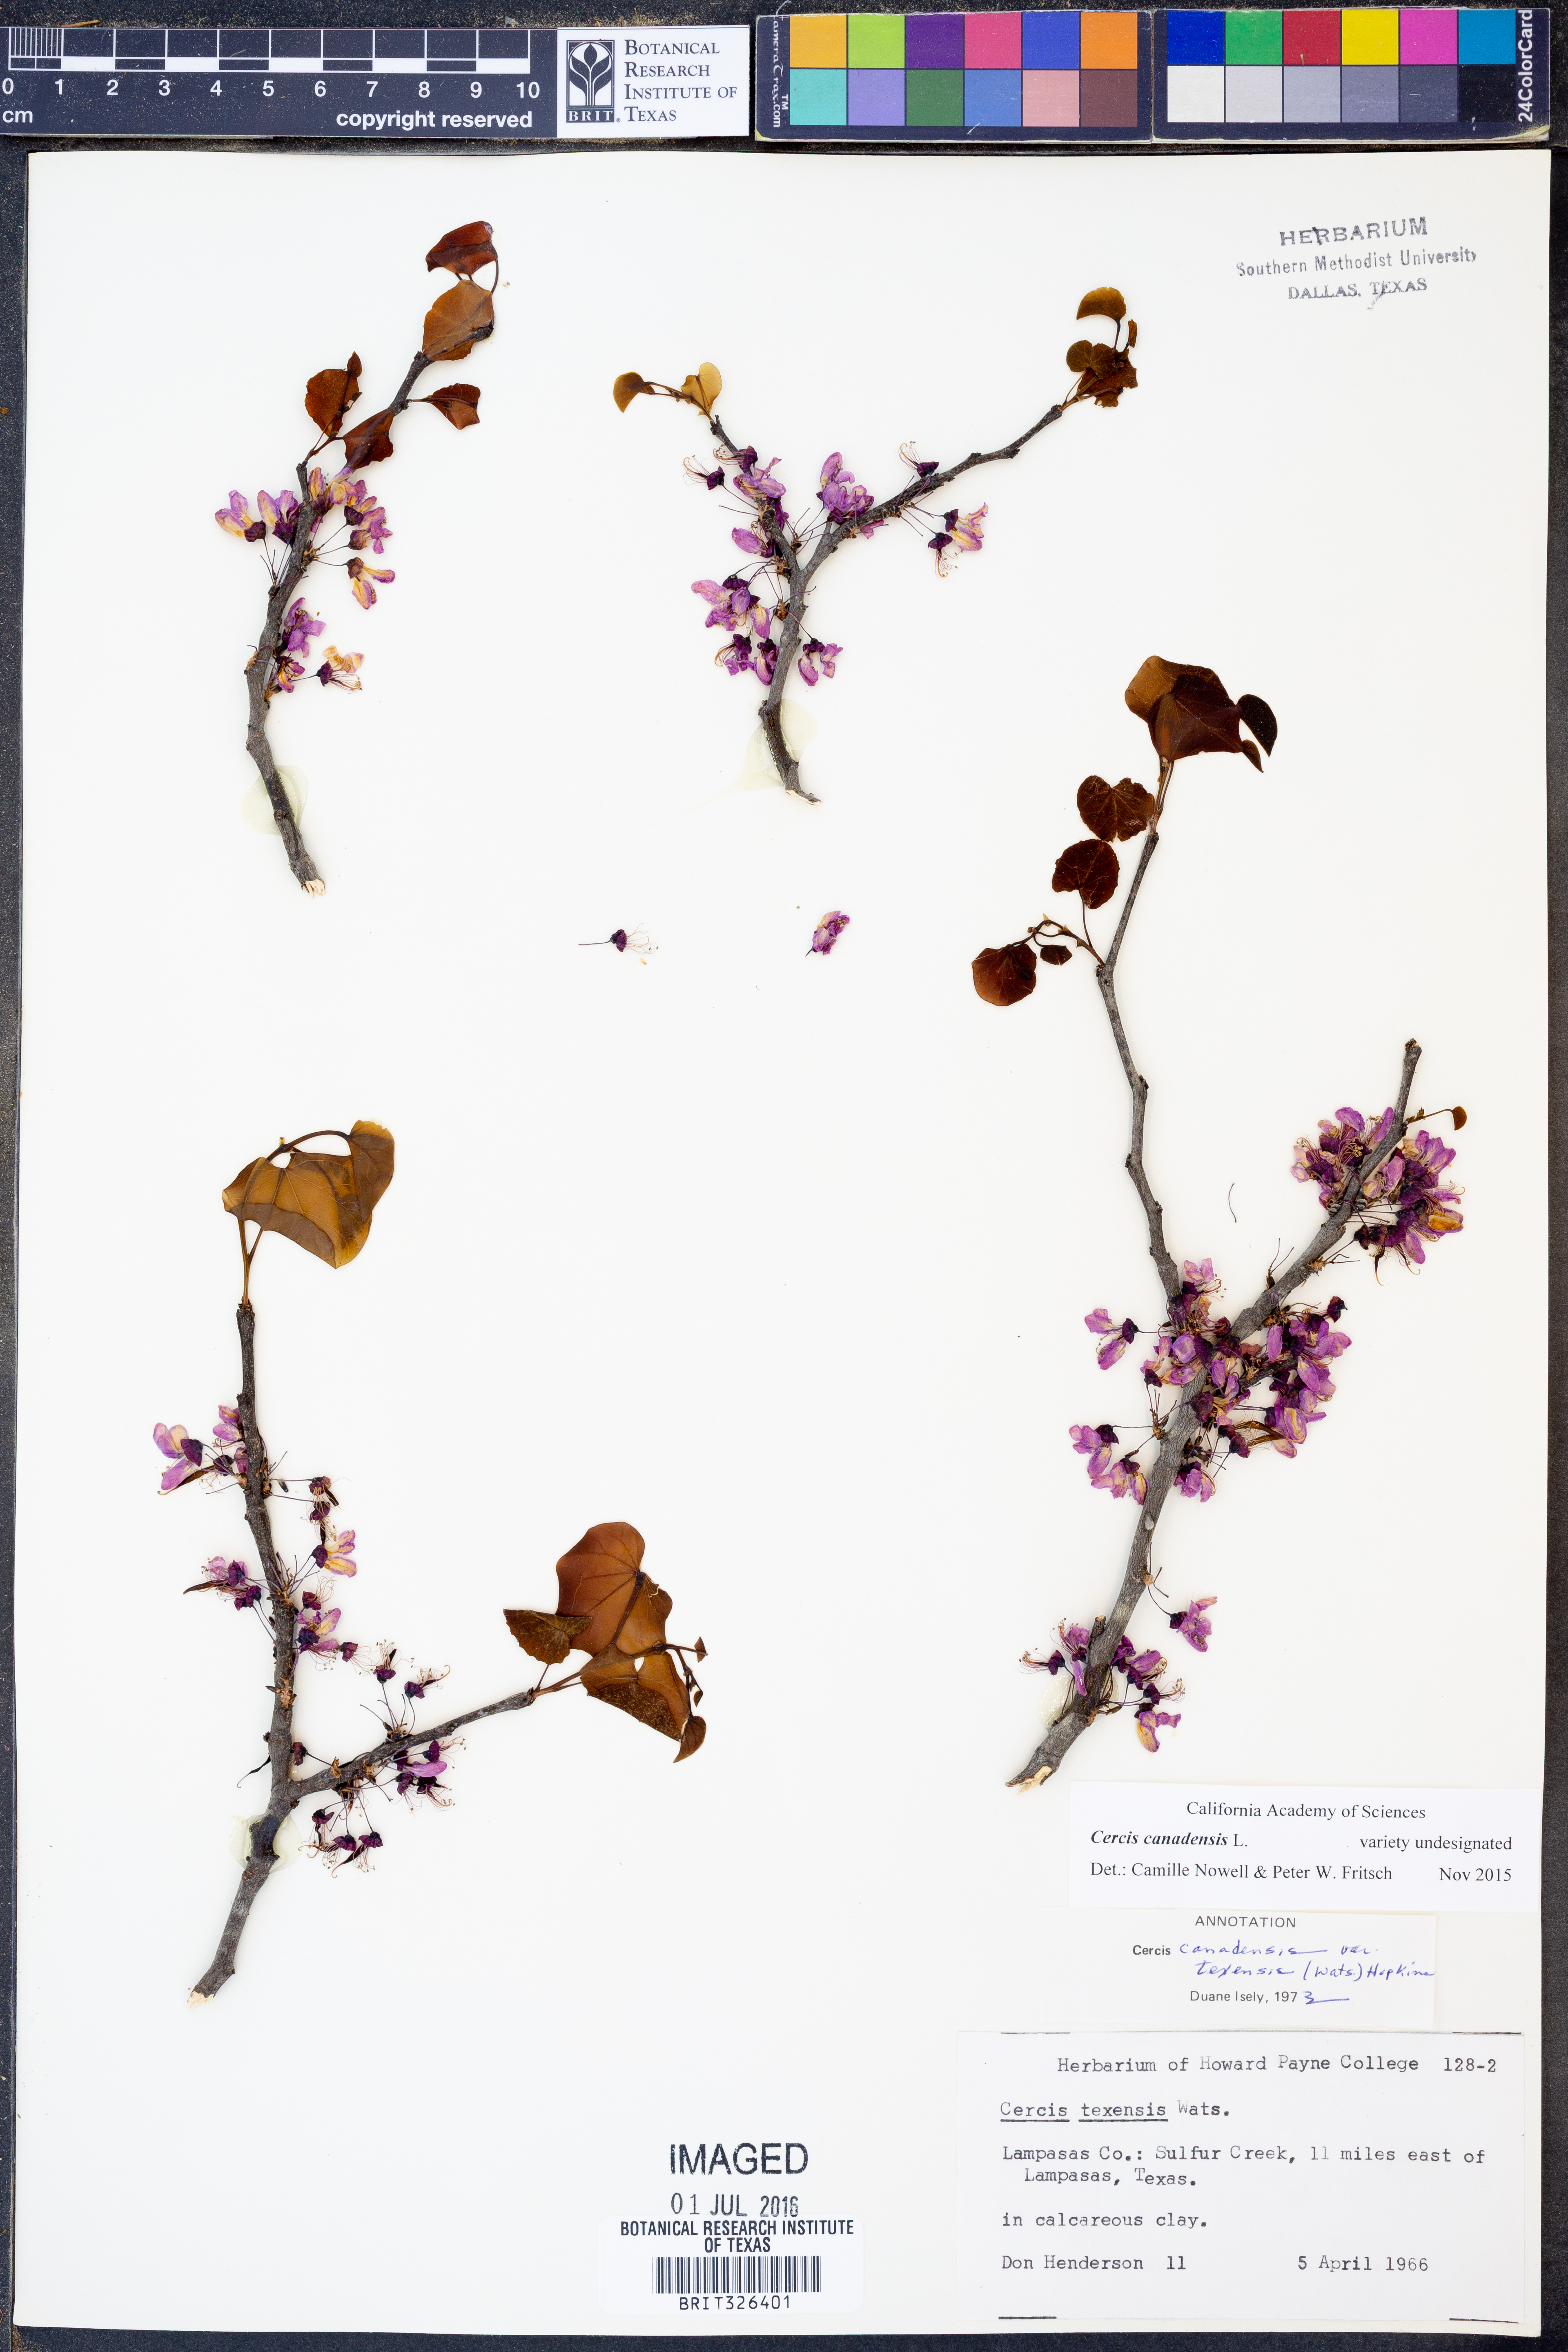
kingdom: Plantae
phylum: Tracheophyta
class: Magnoliopsida
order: Fabales
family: Fabaceae
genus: Cercis
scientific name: Cercis canadensis
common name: Eastern redbud
